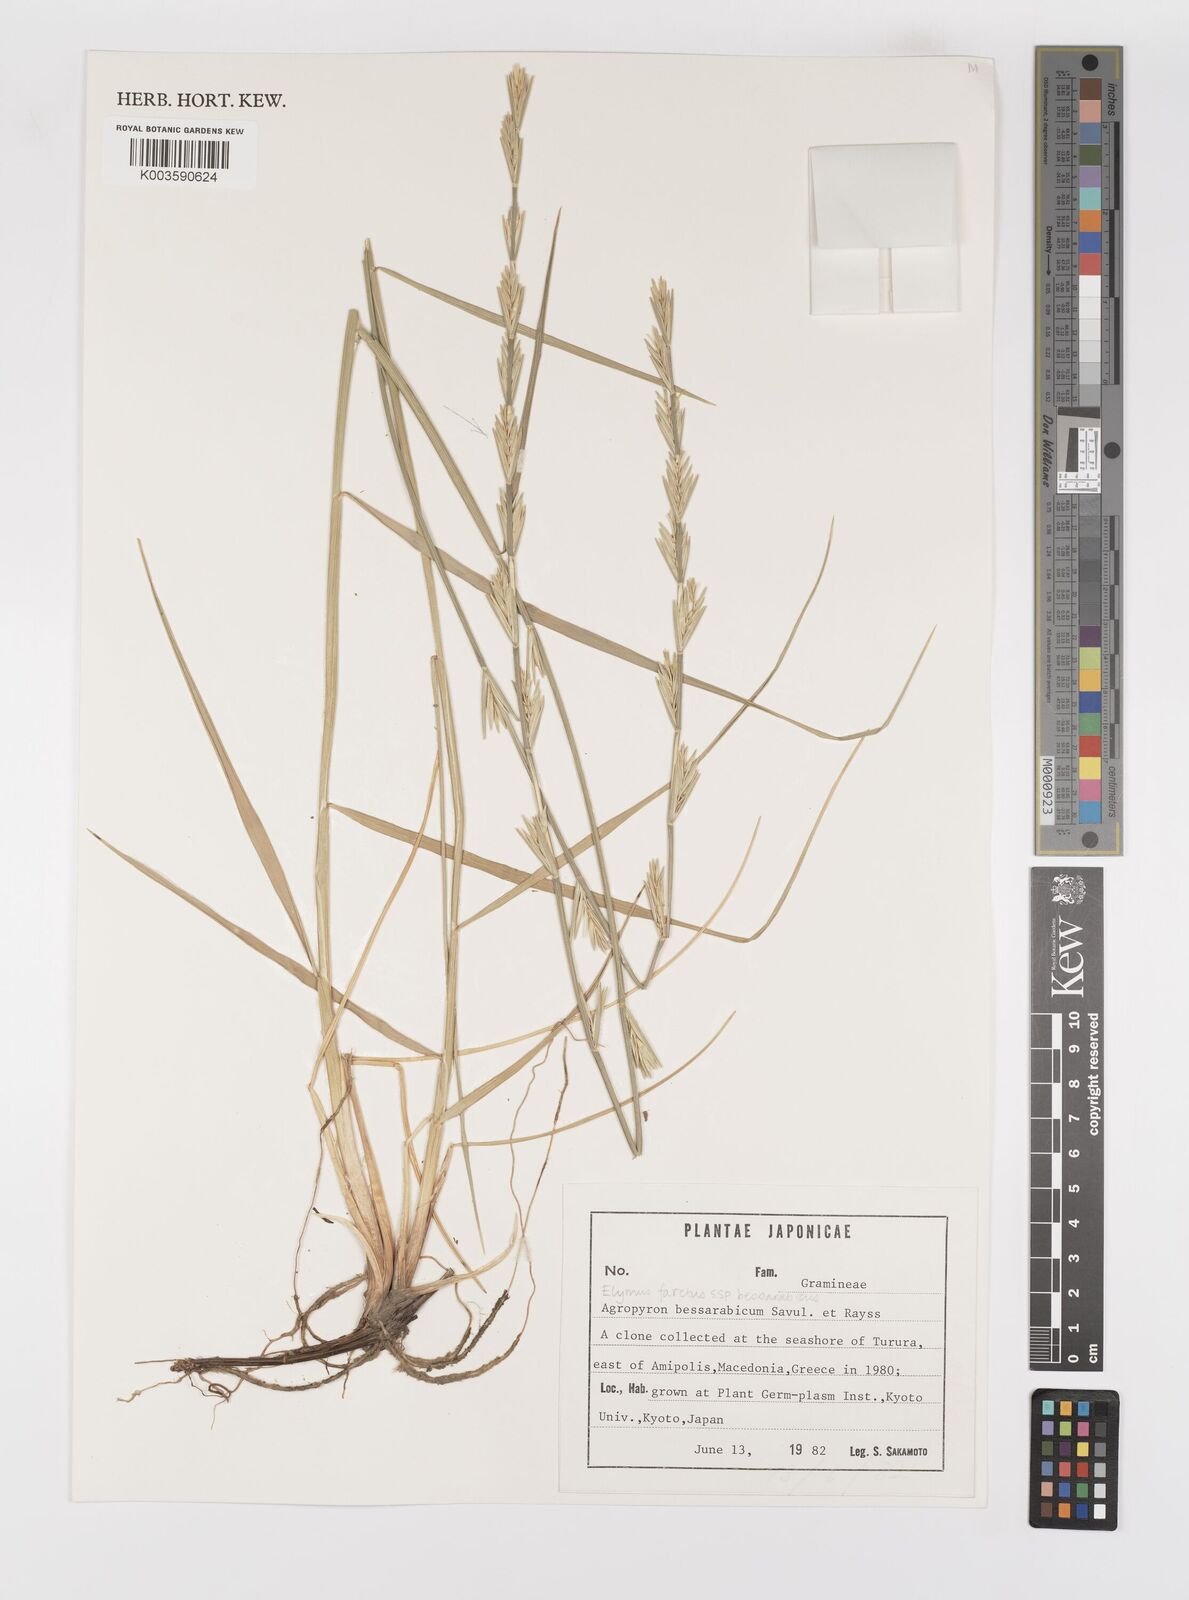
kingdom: Plantae
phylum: Tracheophyta
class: Liliopsida
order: Poales
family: Poaceae
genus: Thinopyrum
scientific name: Thinopyrum junceum
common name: Russian wheatgrass
